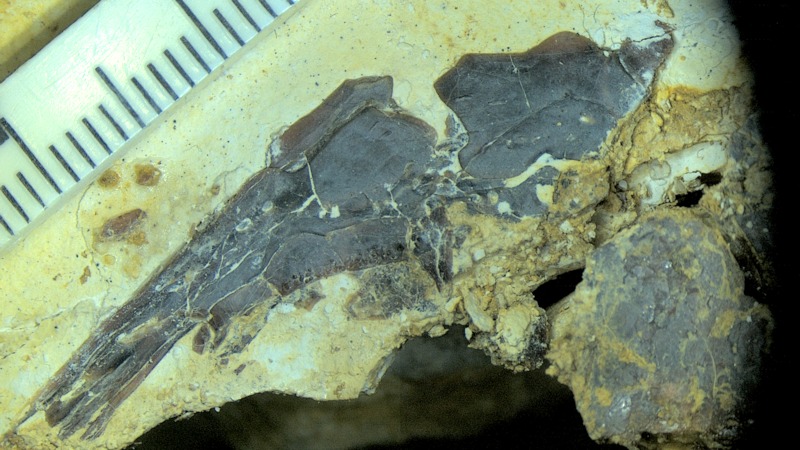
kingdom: Animalia
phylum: Chordata
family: Callipurbeckiidae
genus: Macrosemimimus
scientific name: Macrosemimimus fegerti
